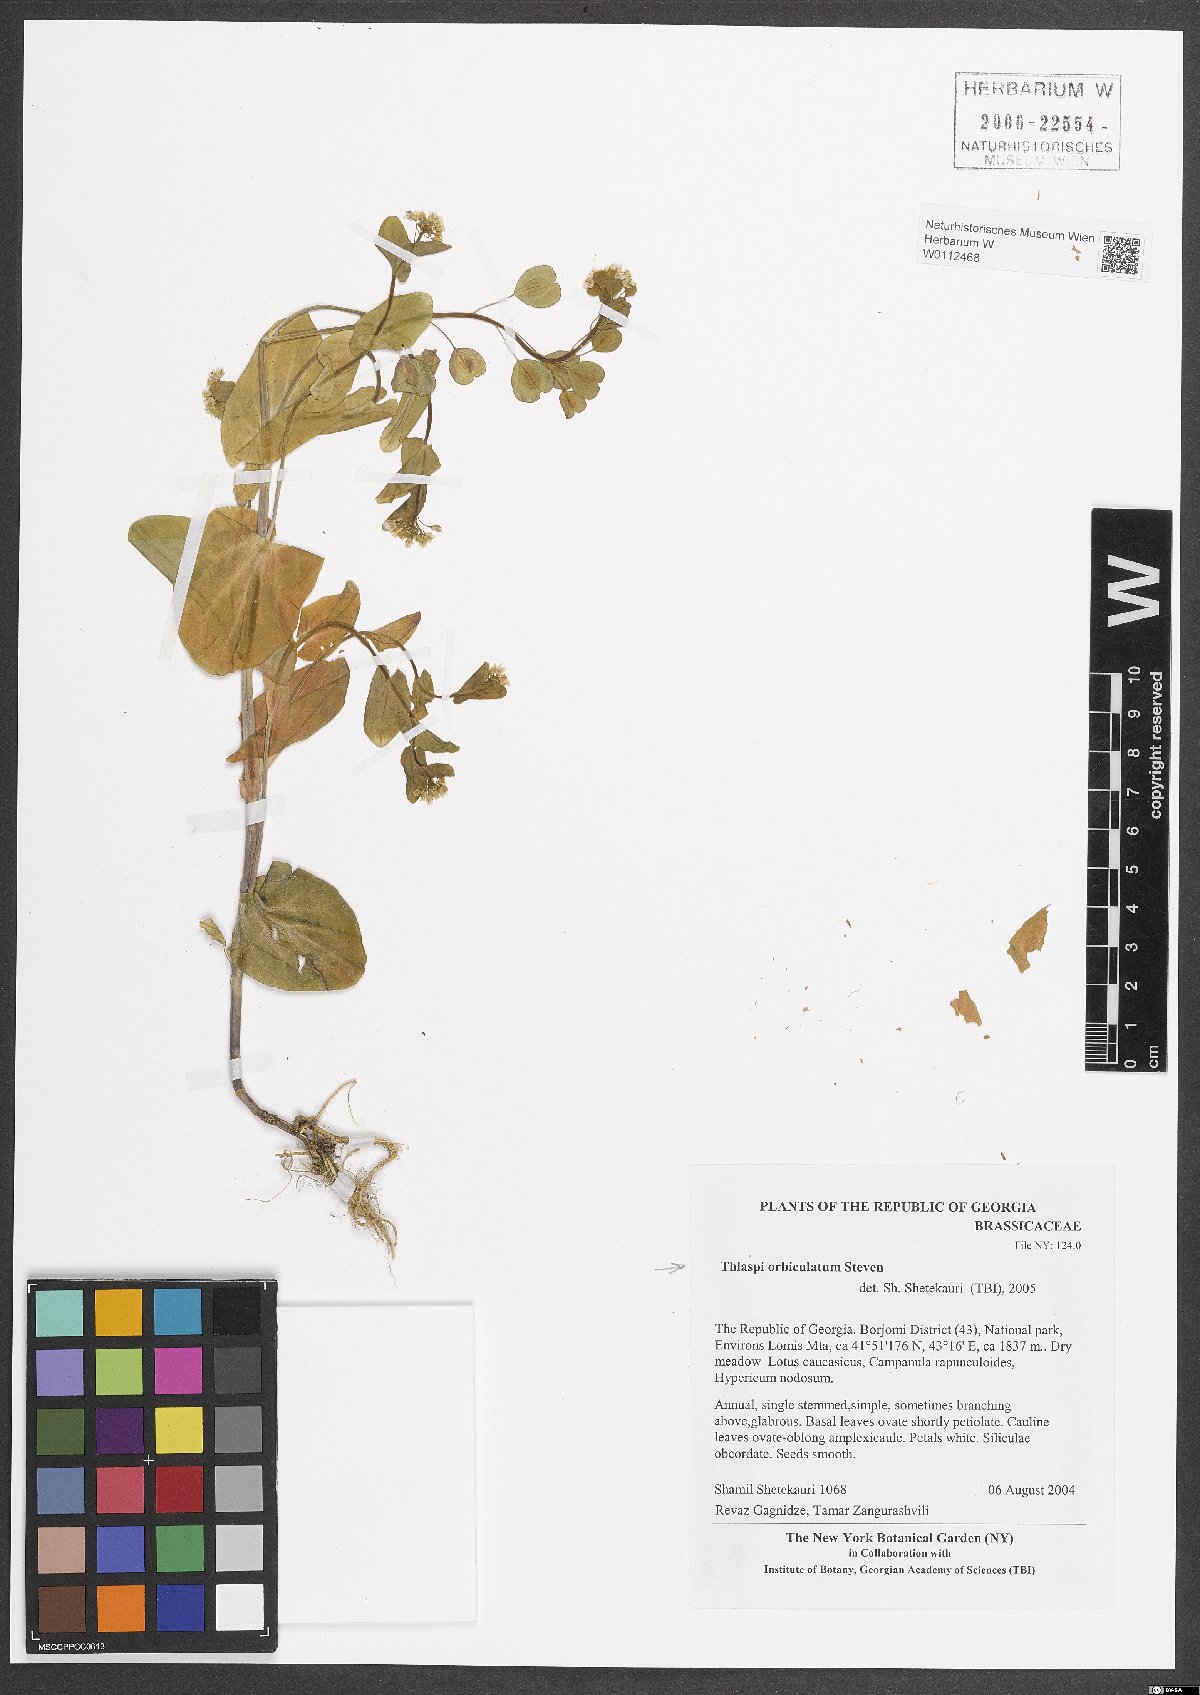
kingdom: Plantae
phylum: Tracheophyta
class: Magnoliopsida
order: Brassicales
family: Brassicaceae
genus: Noccaea
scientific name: Noccaea orbiculata
